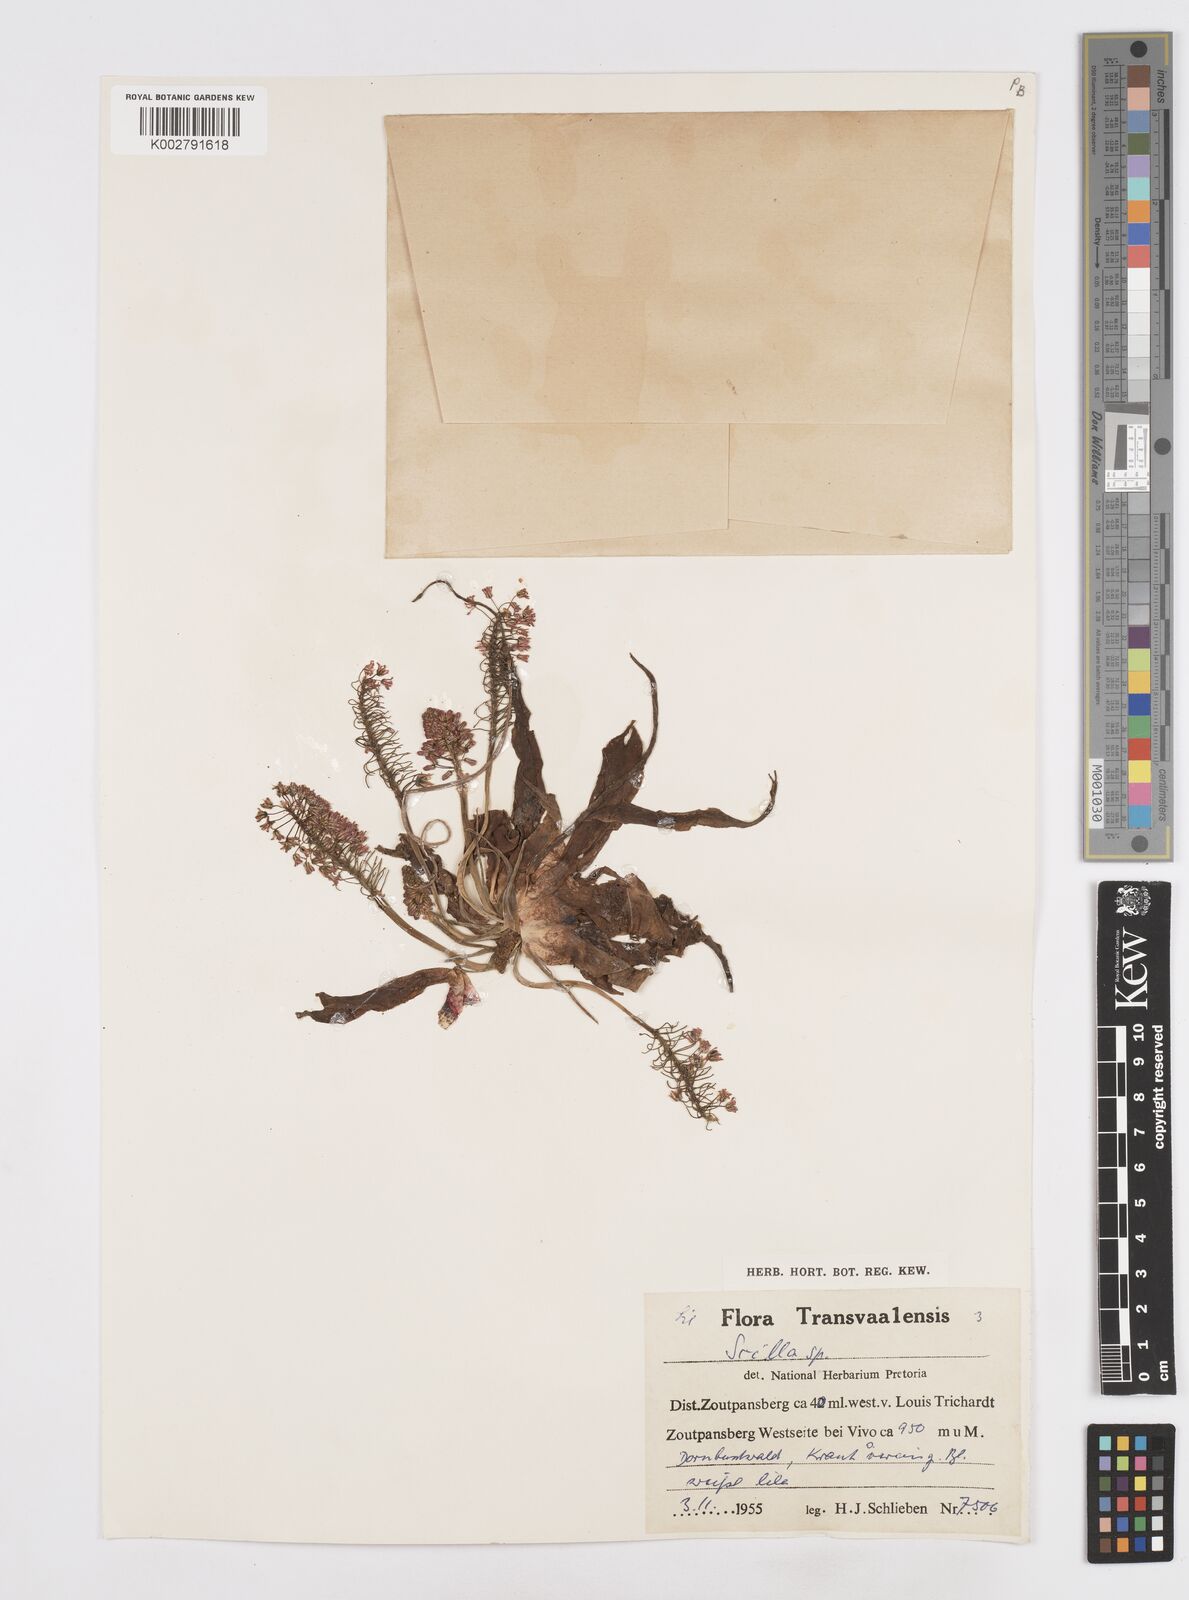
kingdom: Plantae
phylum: Tracheophyta
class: Liliopsida
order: Asparagales
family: Asparagaceae
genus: Scilla
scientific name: Scilla
